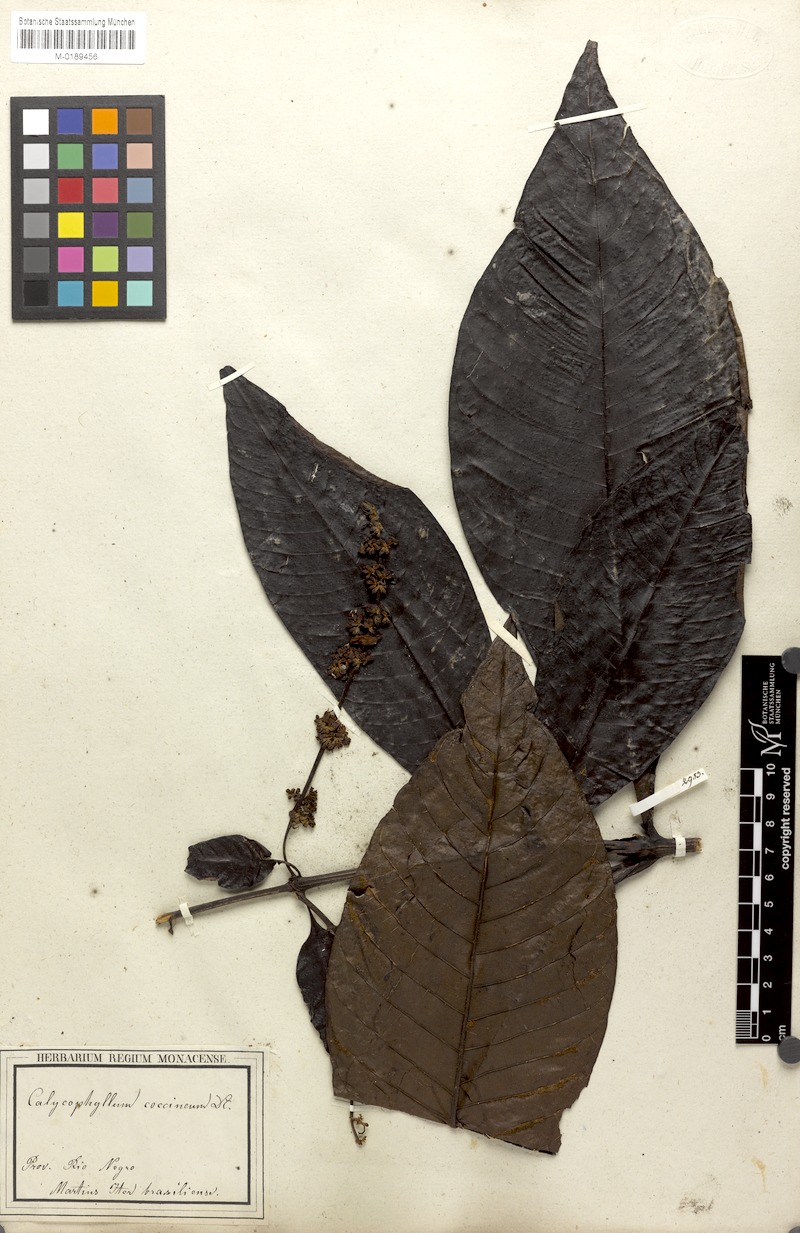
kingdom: Plantae
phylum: Tracheophyta
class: Magnoliopsida
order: Gentianales
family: Rubiaceae
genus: Warszewiczia
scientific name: Warszewiczia coccinea
